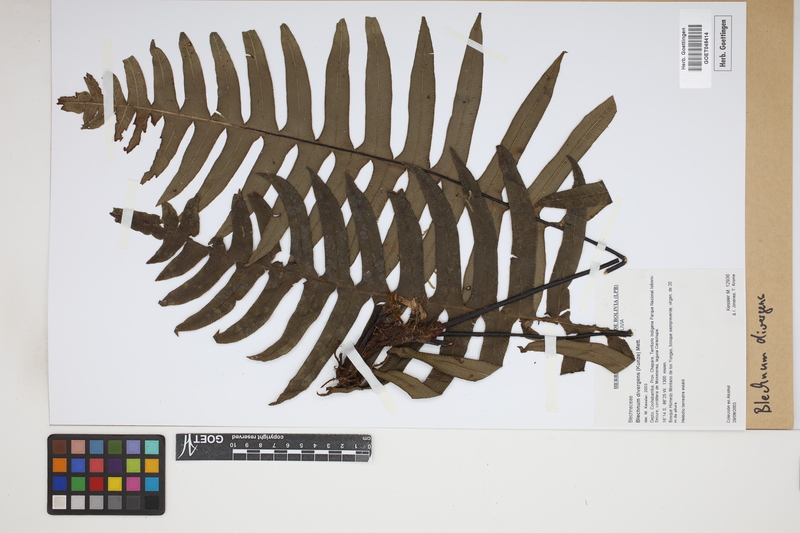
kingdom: Plantae
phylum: Tracheophyta
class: Polypodiopsida
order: Polypodiales
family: Blechnaceae
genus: Austroblechnum
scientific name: Austroblechnum divergens
